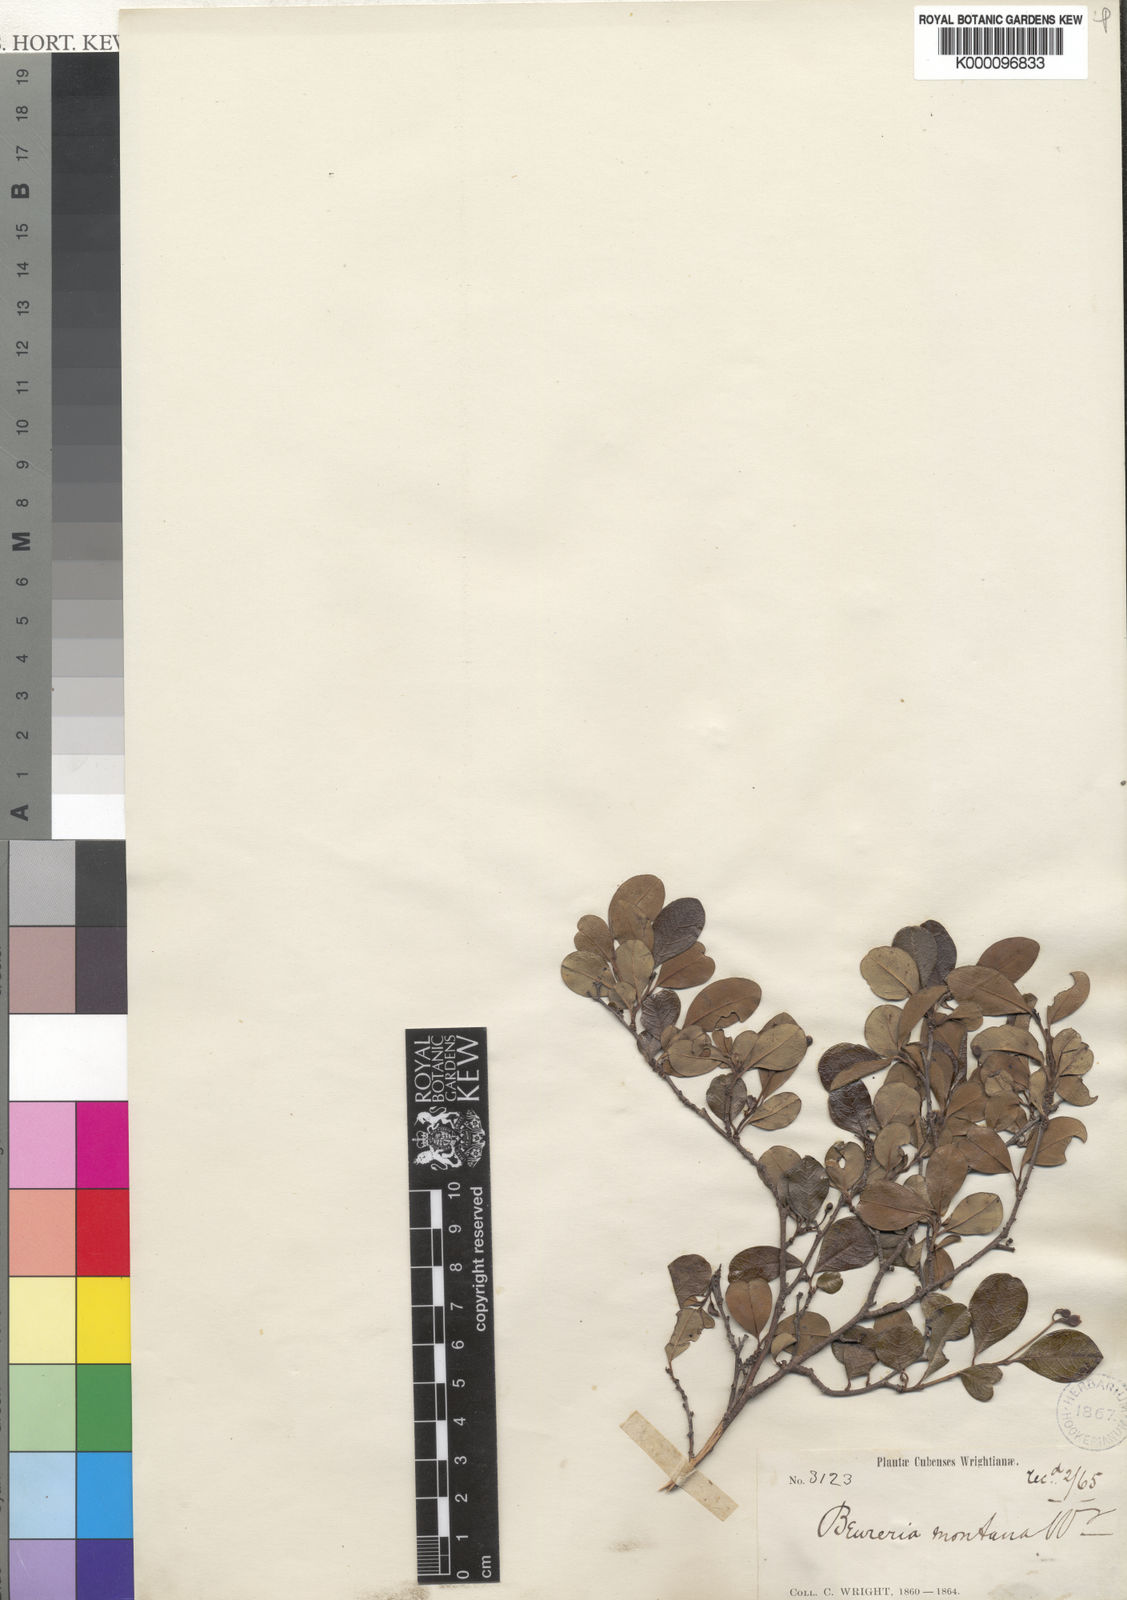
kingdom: Plantae
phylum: Tracheophyta
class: Magnoliopsida
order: Boraginales
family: Ehretiaceae
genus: Bourreria
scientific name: Bourreria succulenta
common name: Cherry
